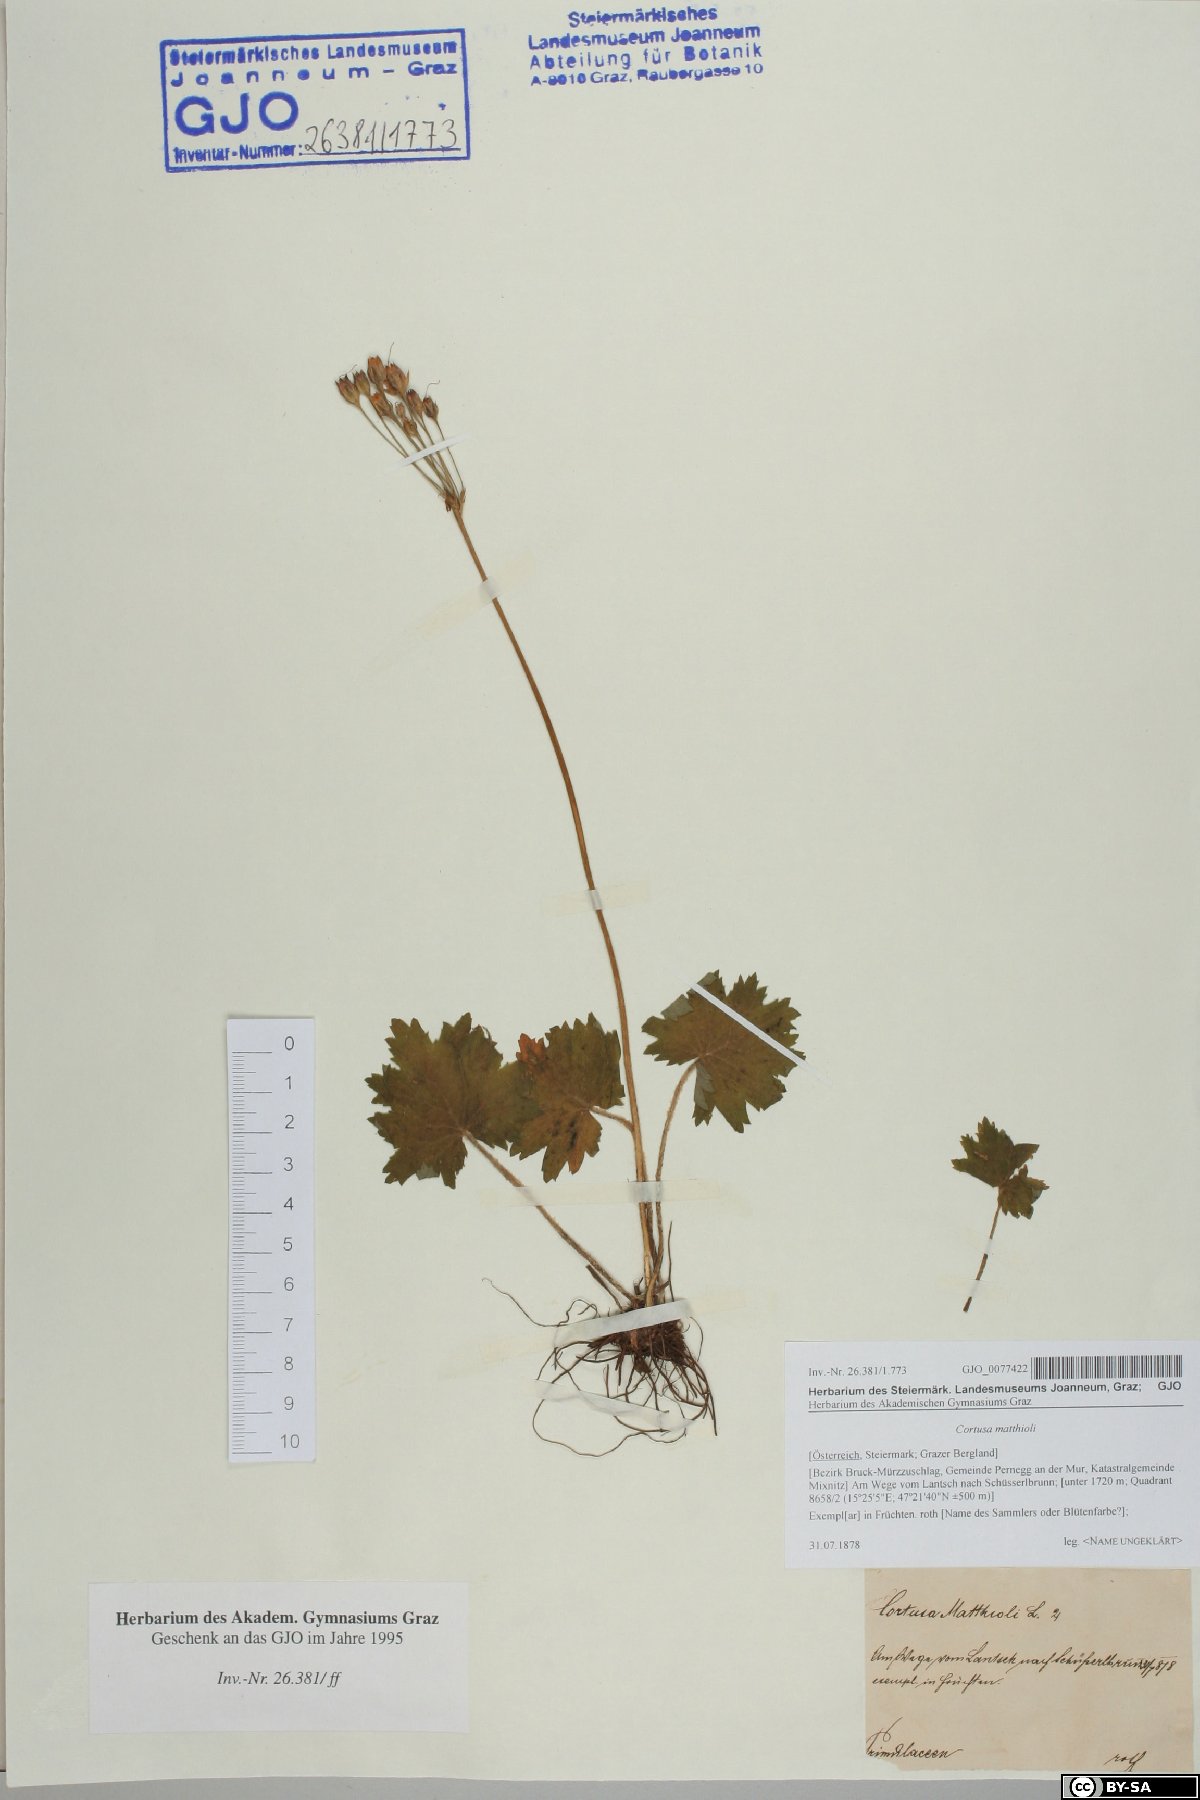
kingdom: Plantae
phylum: Tracheophyta
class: Magnoliopsida
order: Ericales
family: Primulaceae
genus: Primula
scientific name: Primula matthioli
